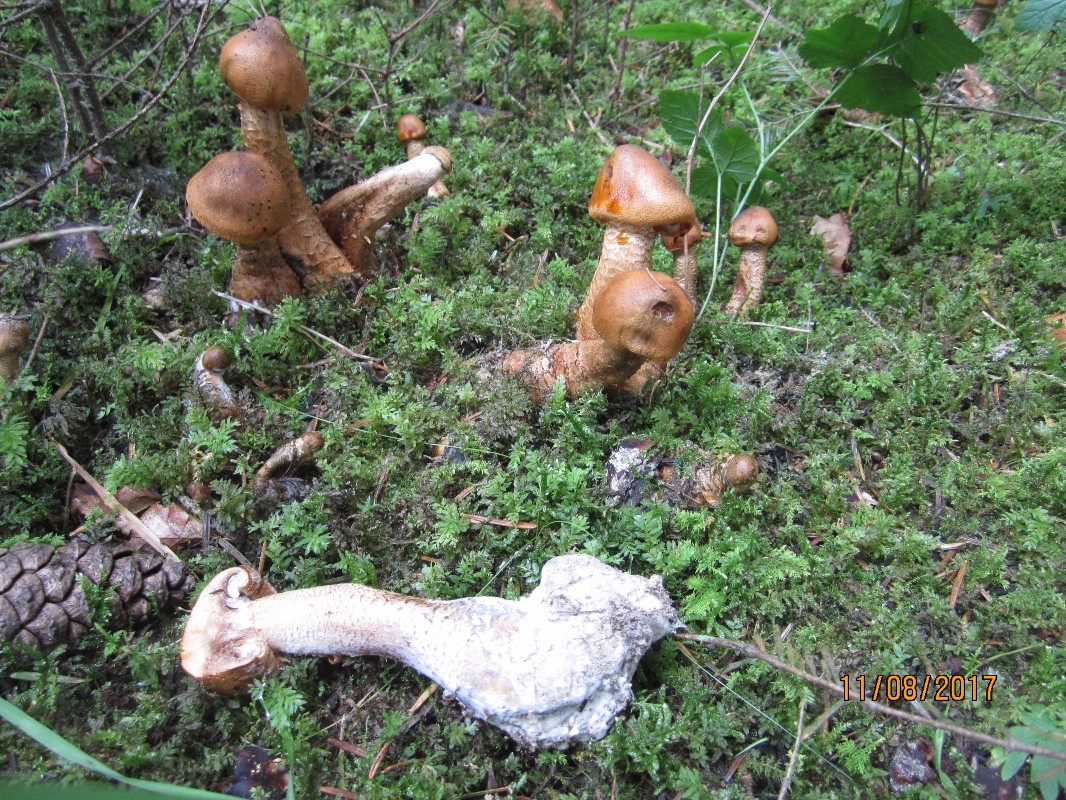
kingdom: Fungi
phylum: Basidiomycota
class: Agaricomycetes
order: Agaricales
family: Tricholomataceae
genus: Tricholoma
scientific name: Tricholoma aurantium
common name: orangegul ridderhat
